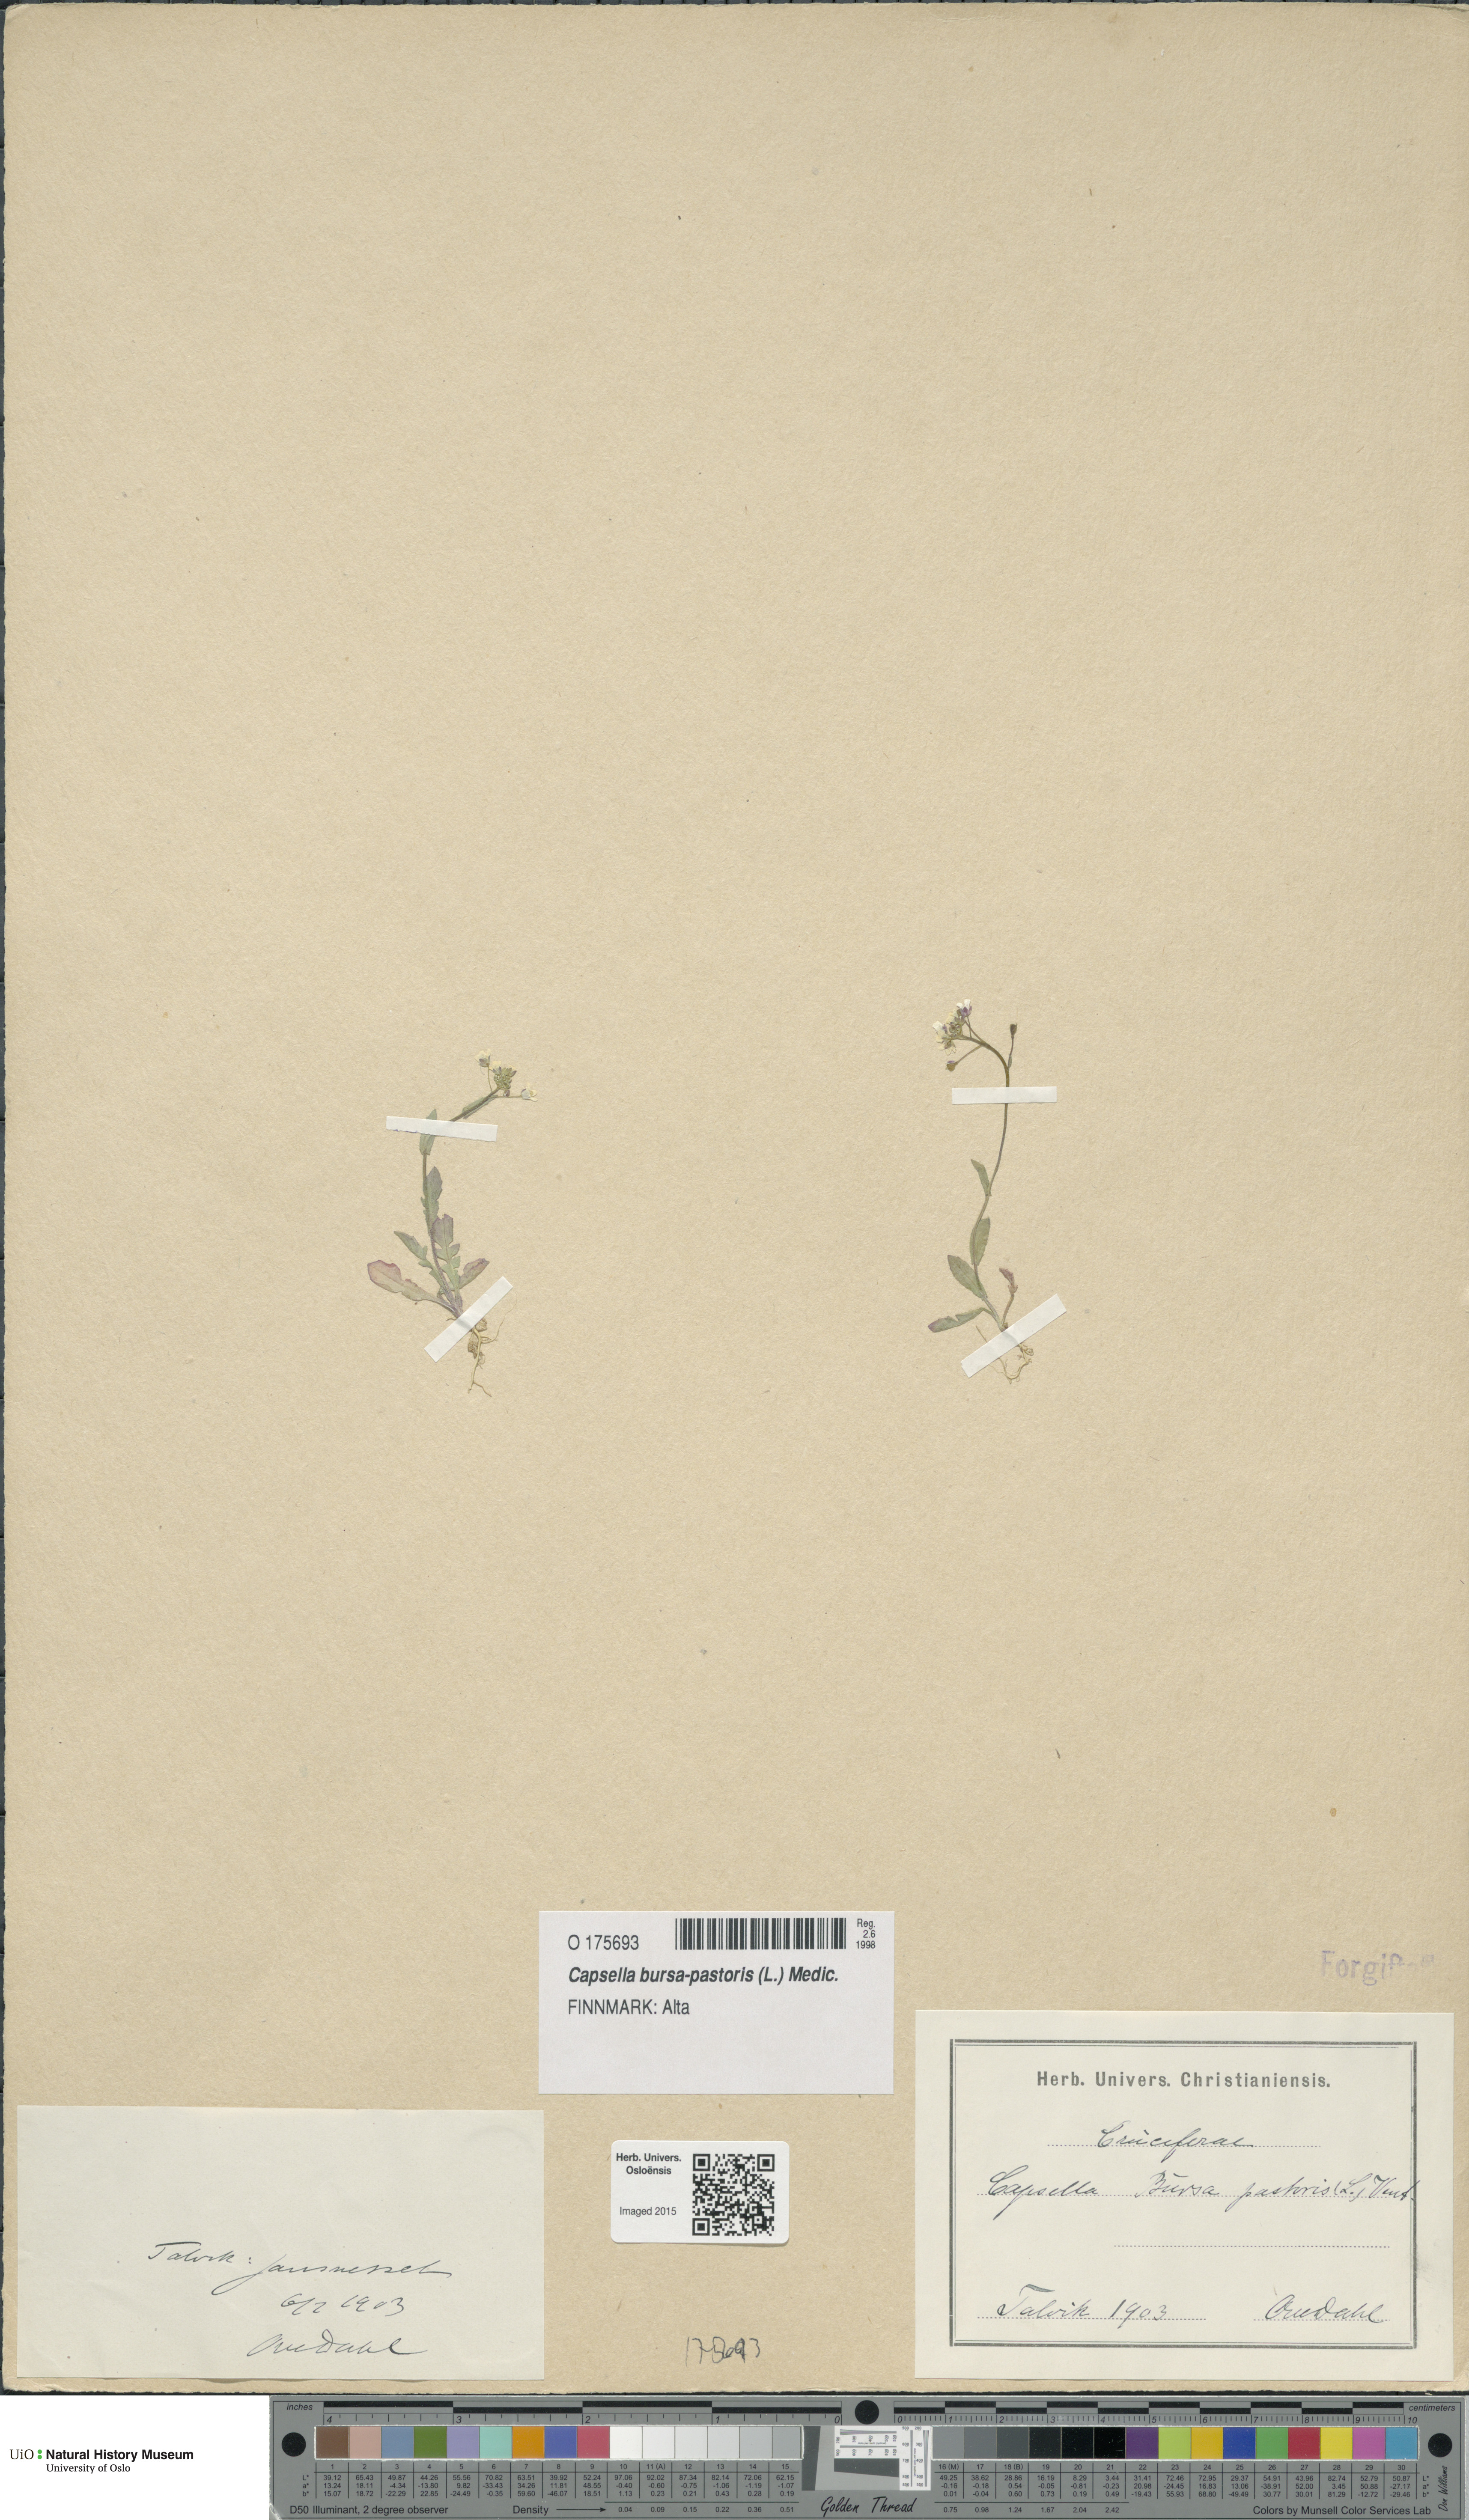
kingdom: Plantae
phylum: Tracheophyta
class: Magnoliopsida
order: Brassicales
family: Brassicaceae
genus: Capsella
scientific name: Capsella bursa-pastoris
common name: Shepherd's purse
